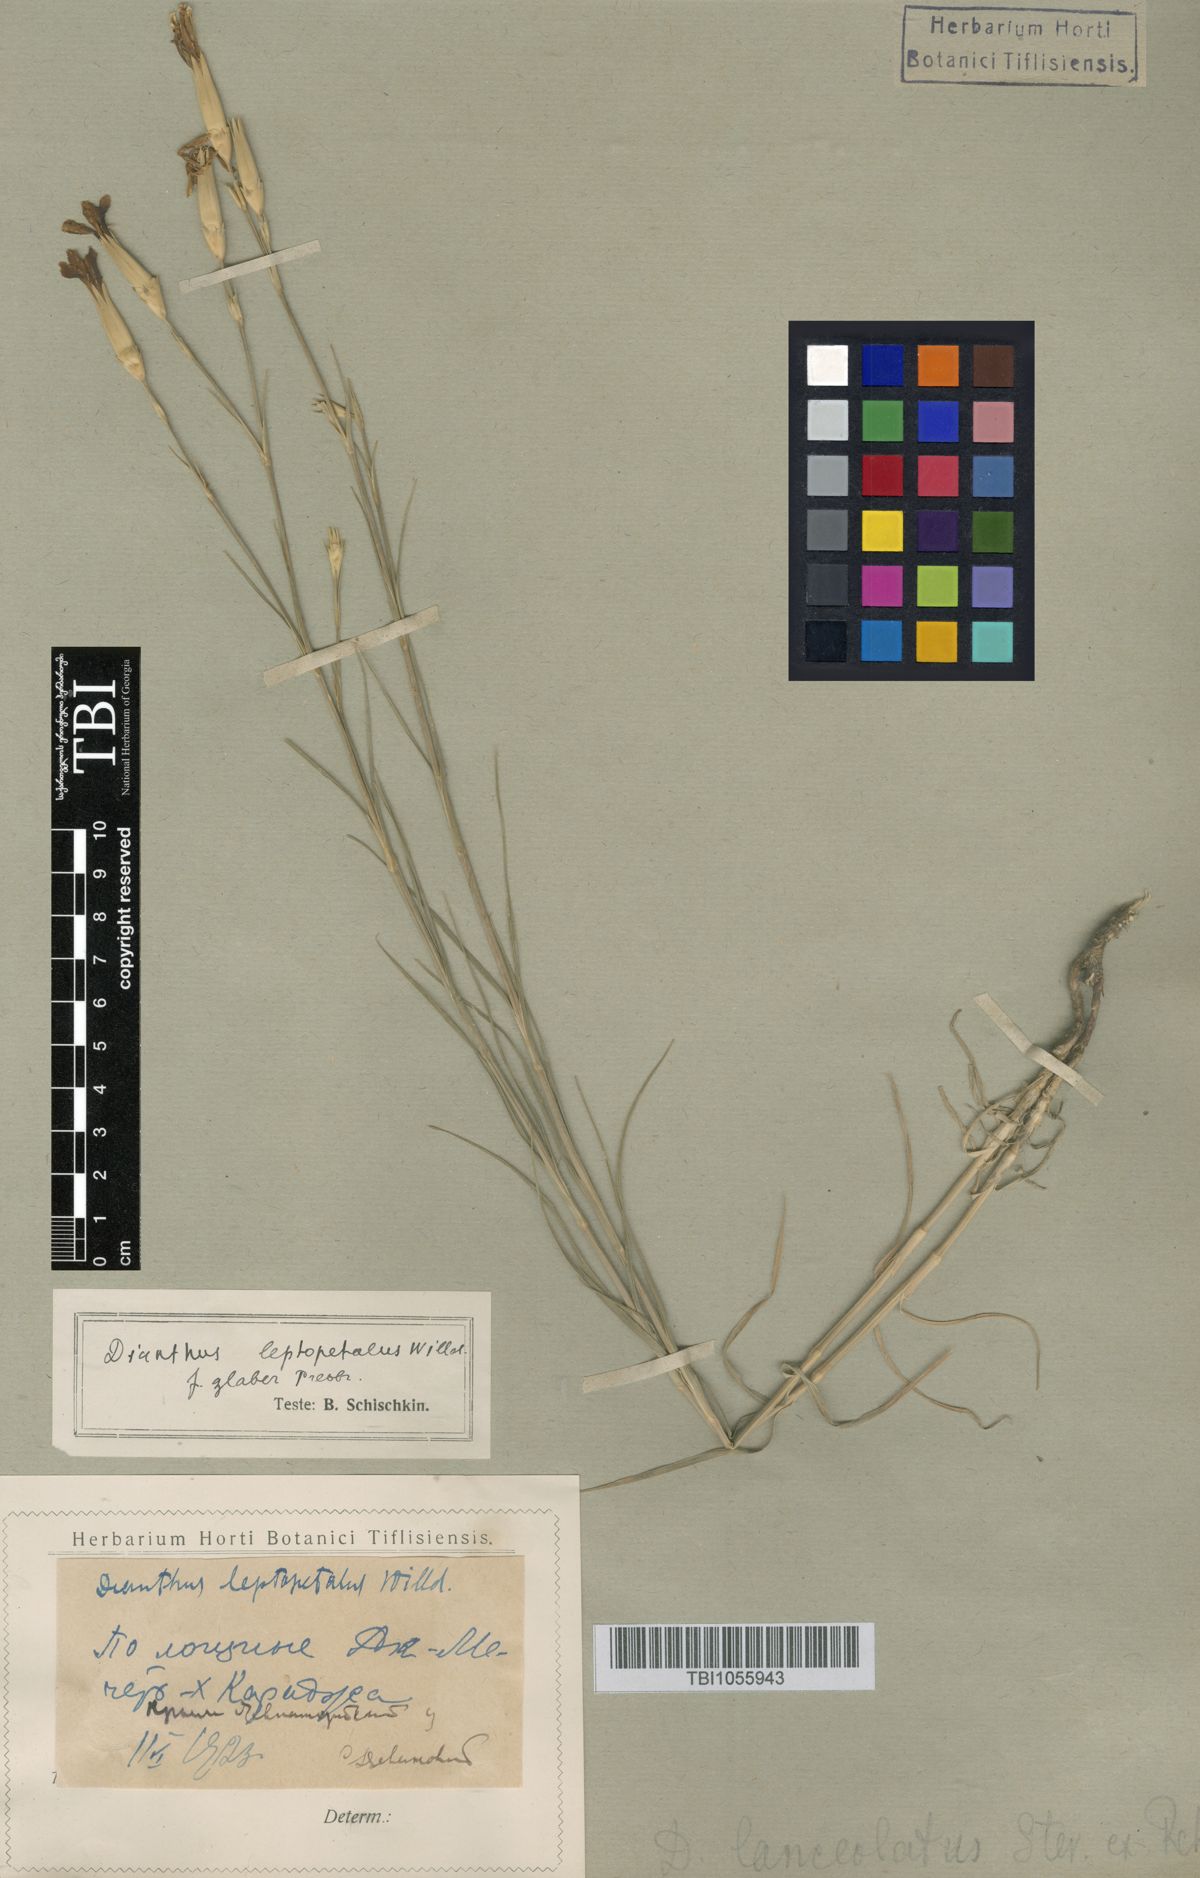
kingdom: Plantae
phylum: Tracheophyta
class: Magnoliopsida
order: Caryophyllales
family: Caryophyllaceae
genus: Dianthus
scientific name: Dianthus leptopetalus
